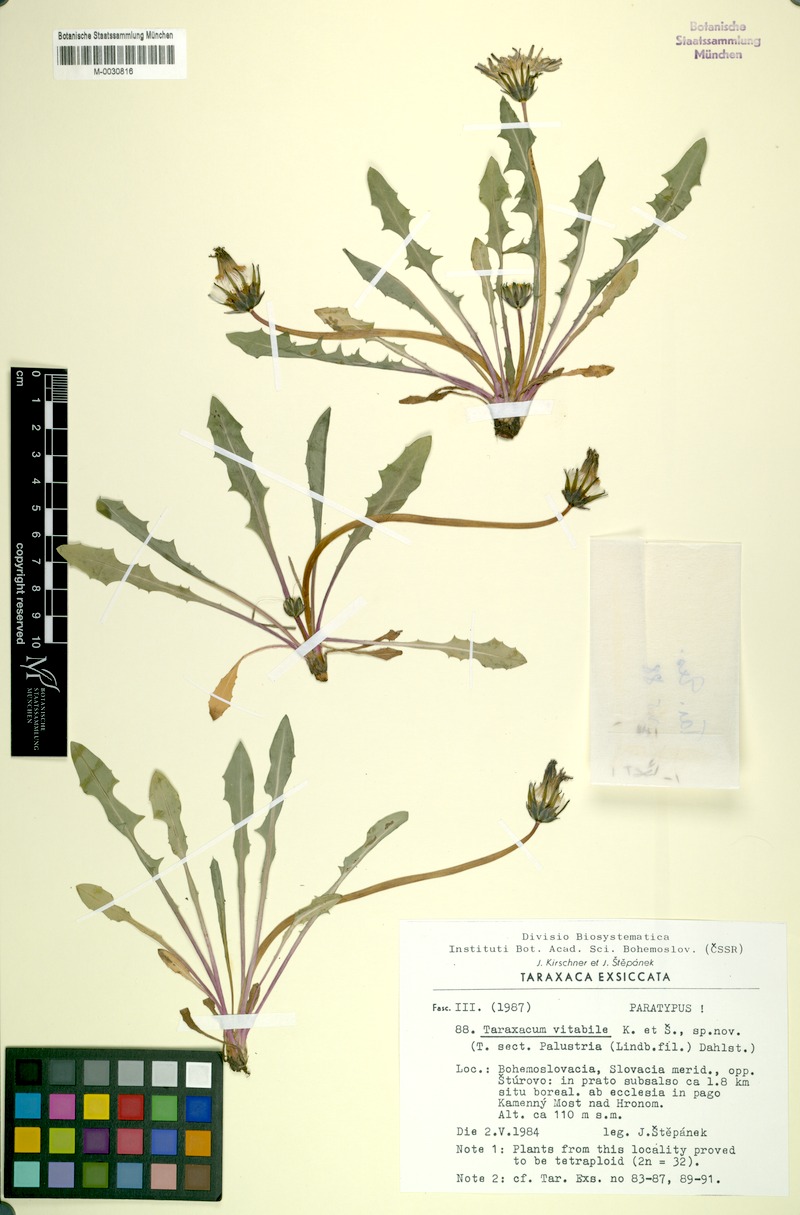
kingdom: Plantae
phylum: Tracheophyta
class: Magnoliopsida
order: Asterales
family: Asteraceae
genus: Taraxacum
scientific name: Taraxacum vindobonense
